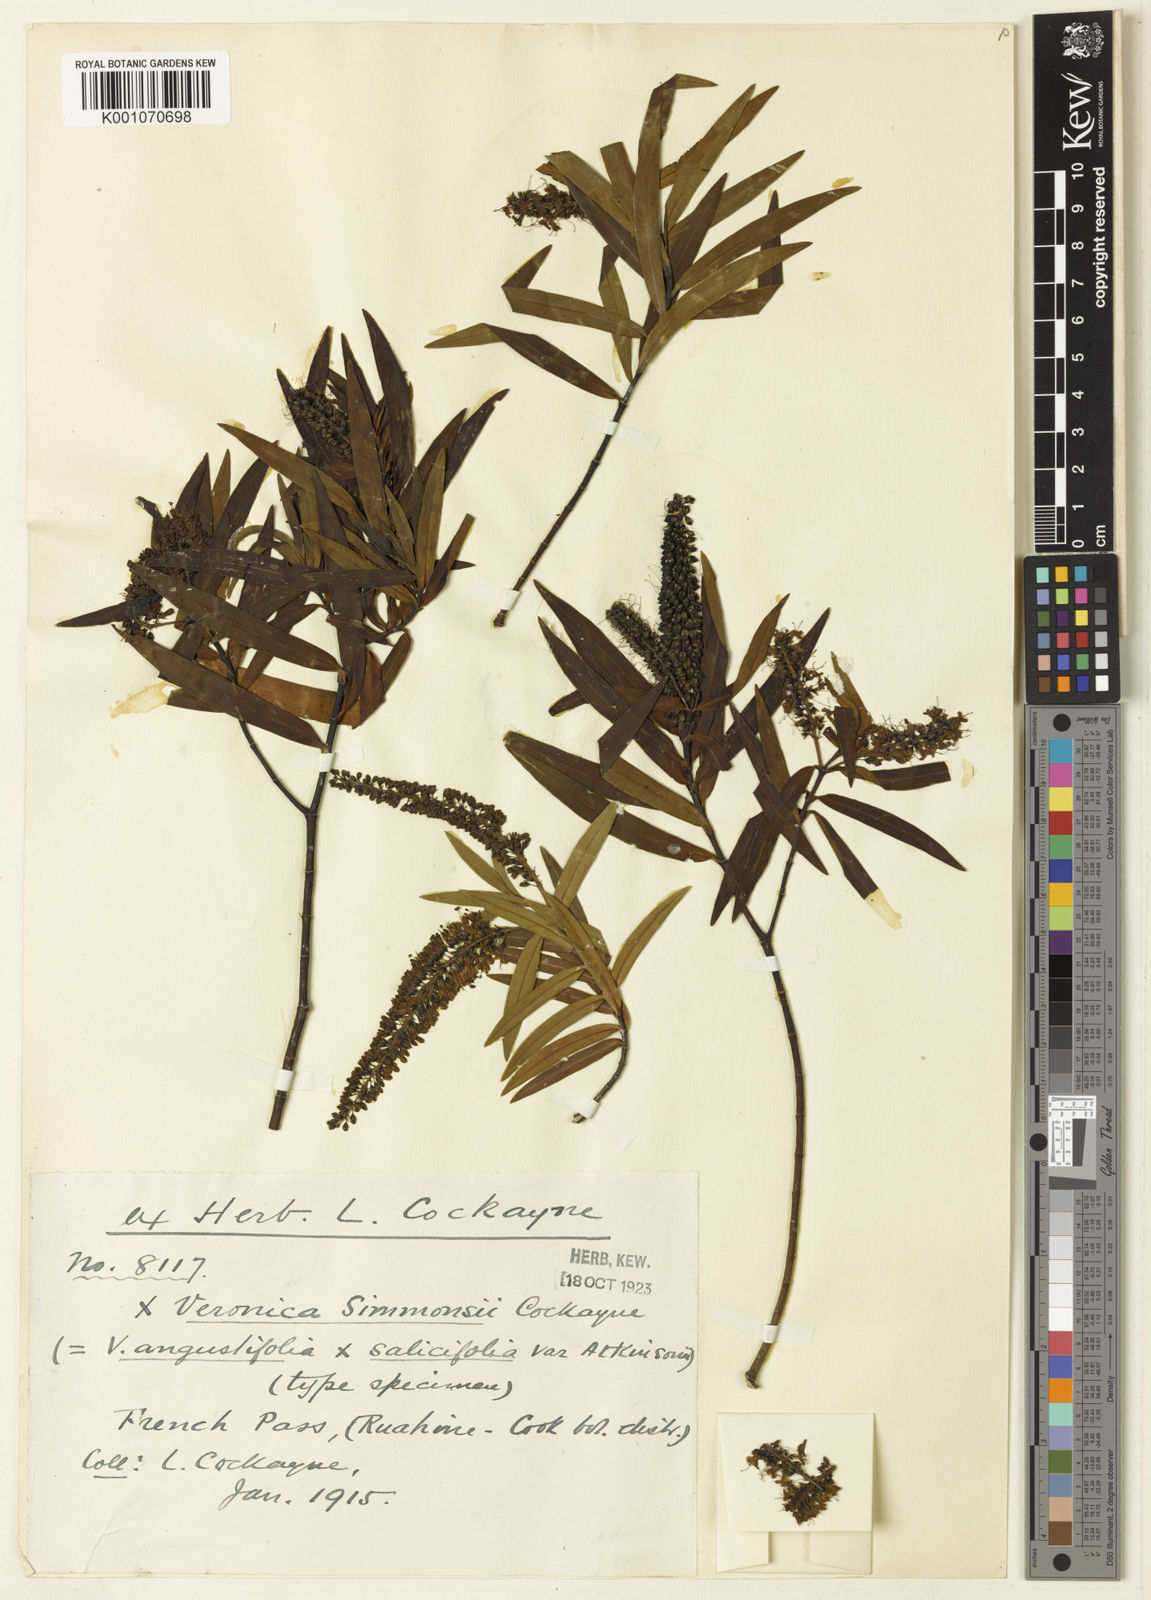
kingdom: Plantae
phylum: Tracheophyta
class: Magnoliopsida
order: Lamiales
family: Plantaginaceae
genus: Veronica
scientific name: Veronica simmonsii
